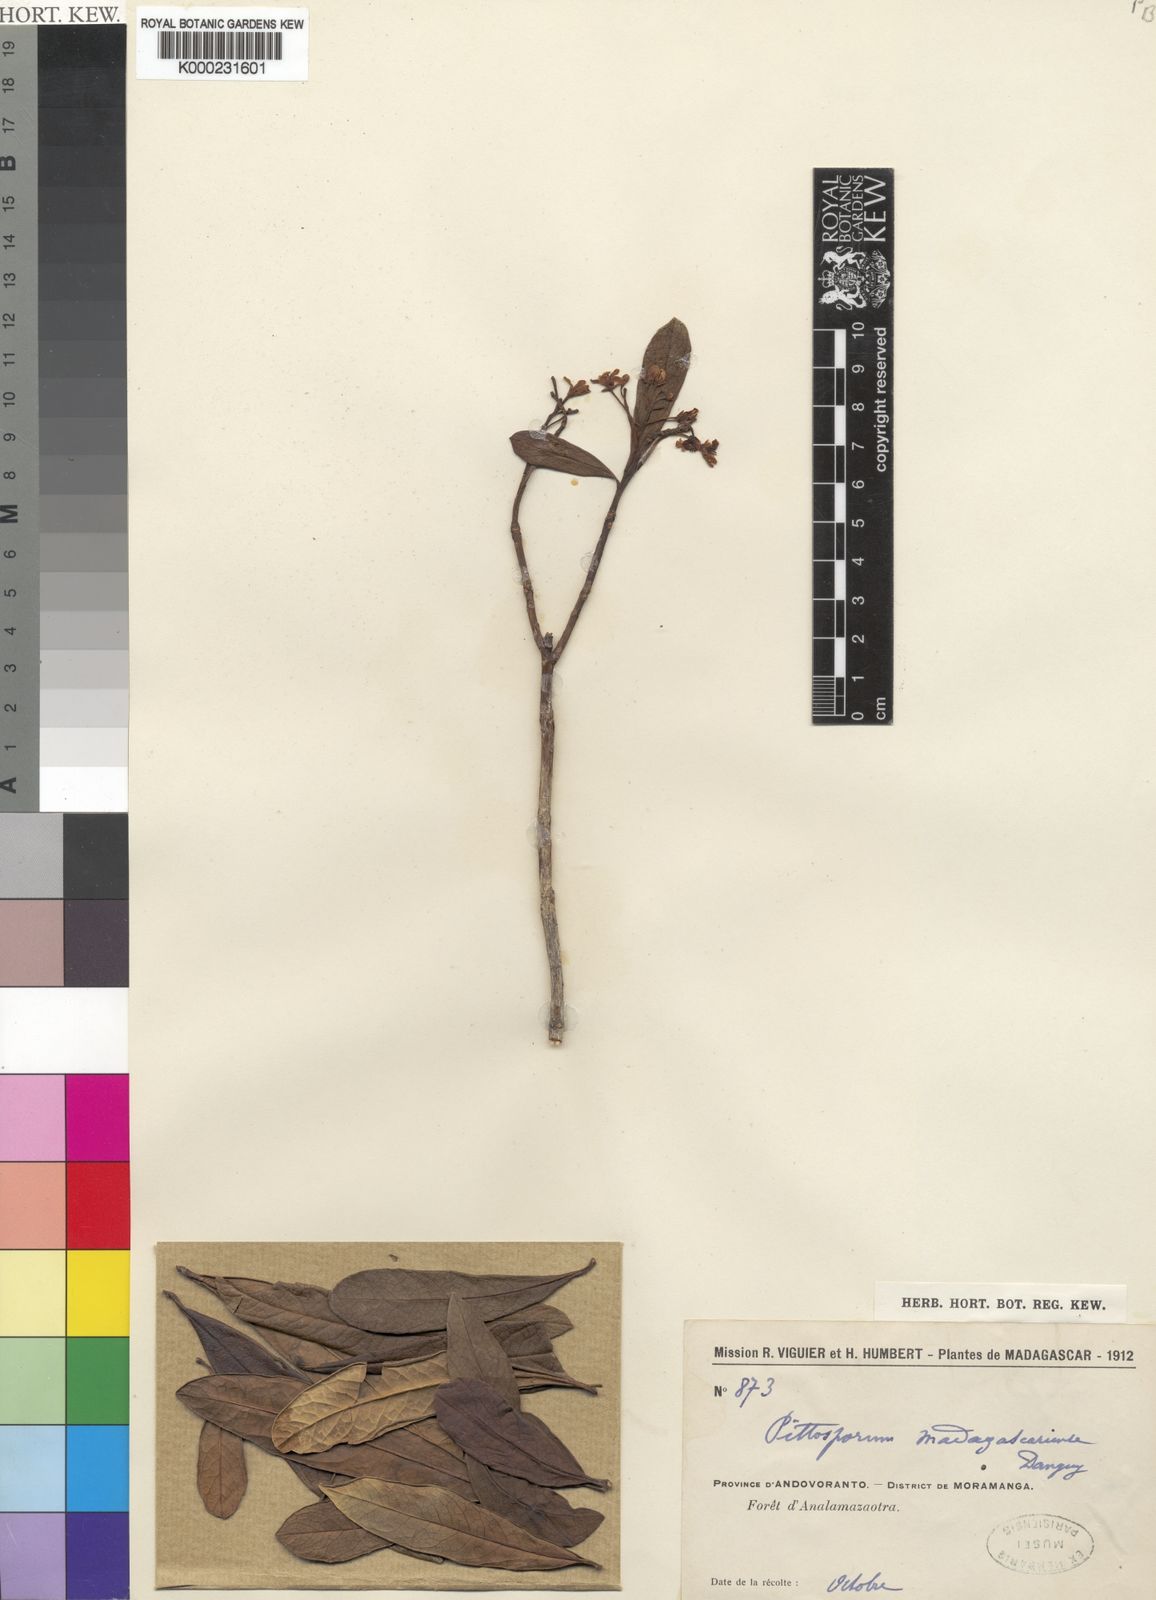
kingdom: Plantae
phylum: Tracheophyta
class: Magnoliopsida
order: Apiales
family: Pittosporaceae
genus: Pittosporum
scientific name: Pittosporum
